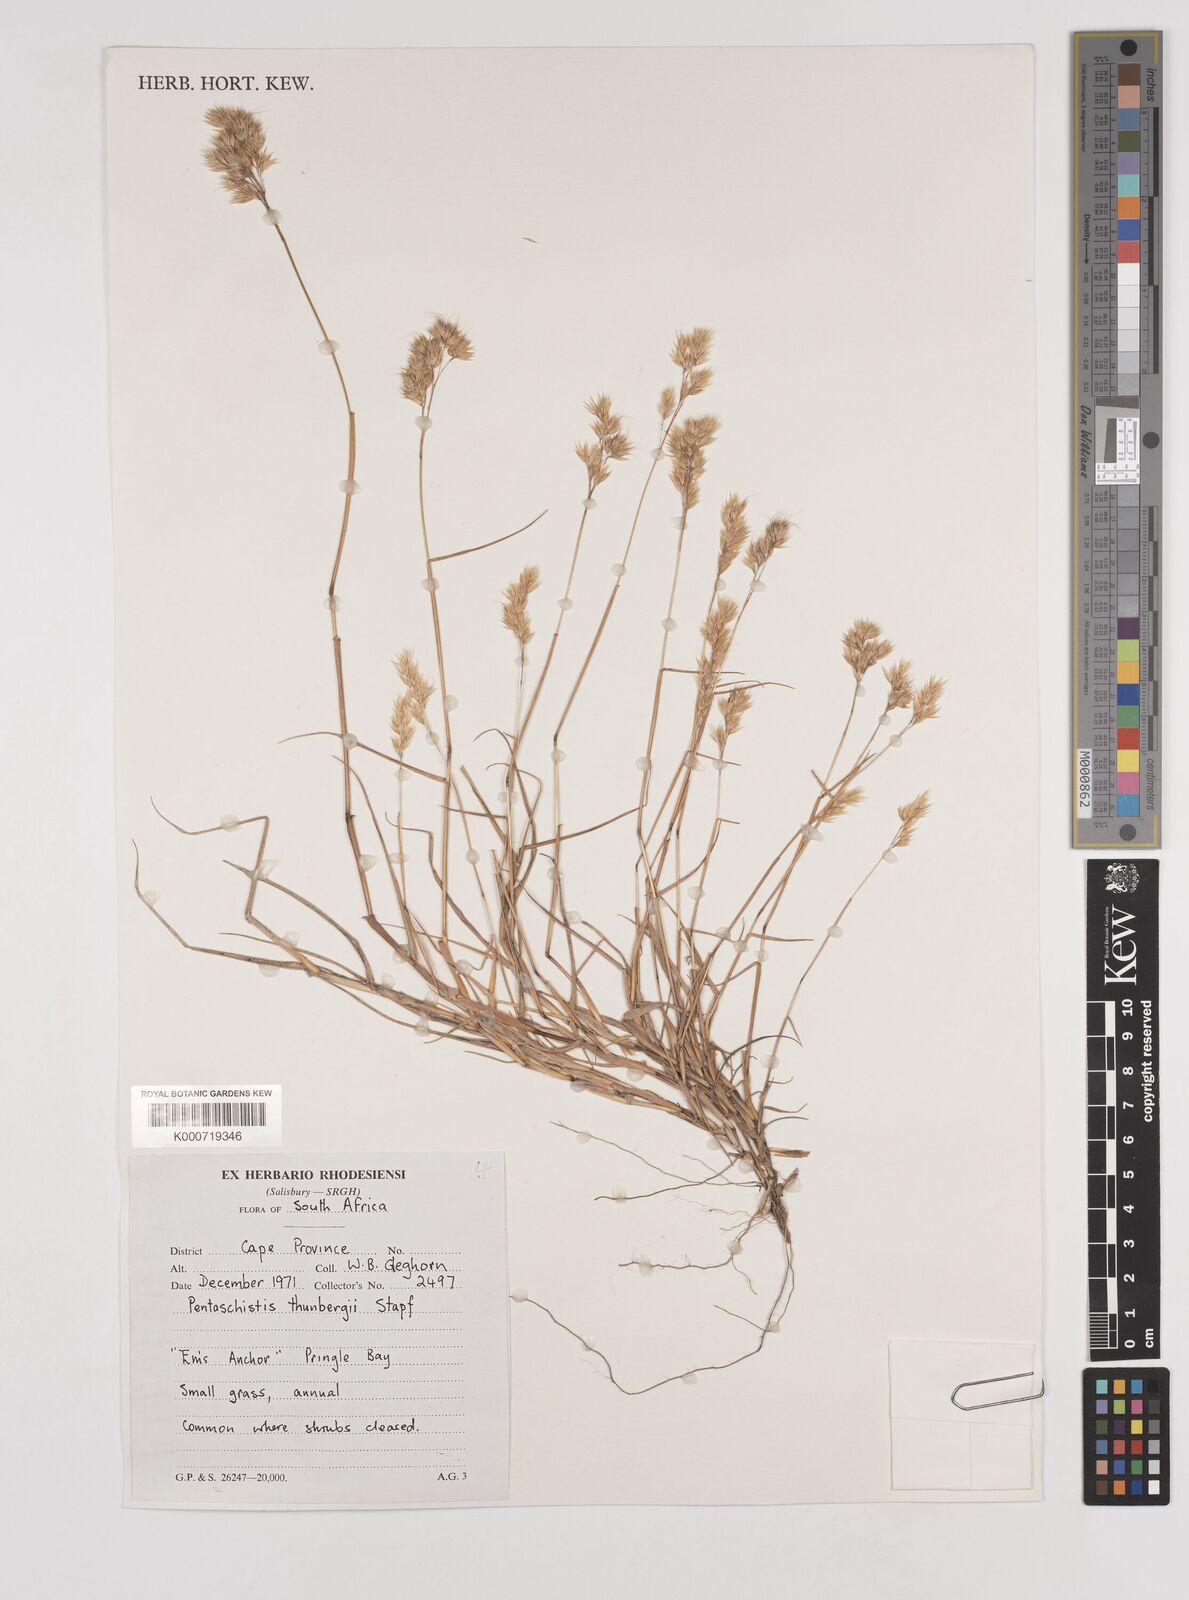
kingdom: Plantae
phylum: Tracheophyta
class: Liliopsida
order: Poales
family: Poaceae
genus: Pentameris
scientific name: Pentameris triseta
